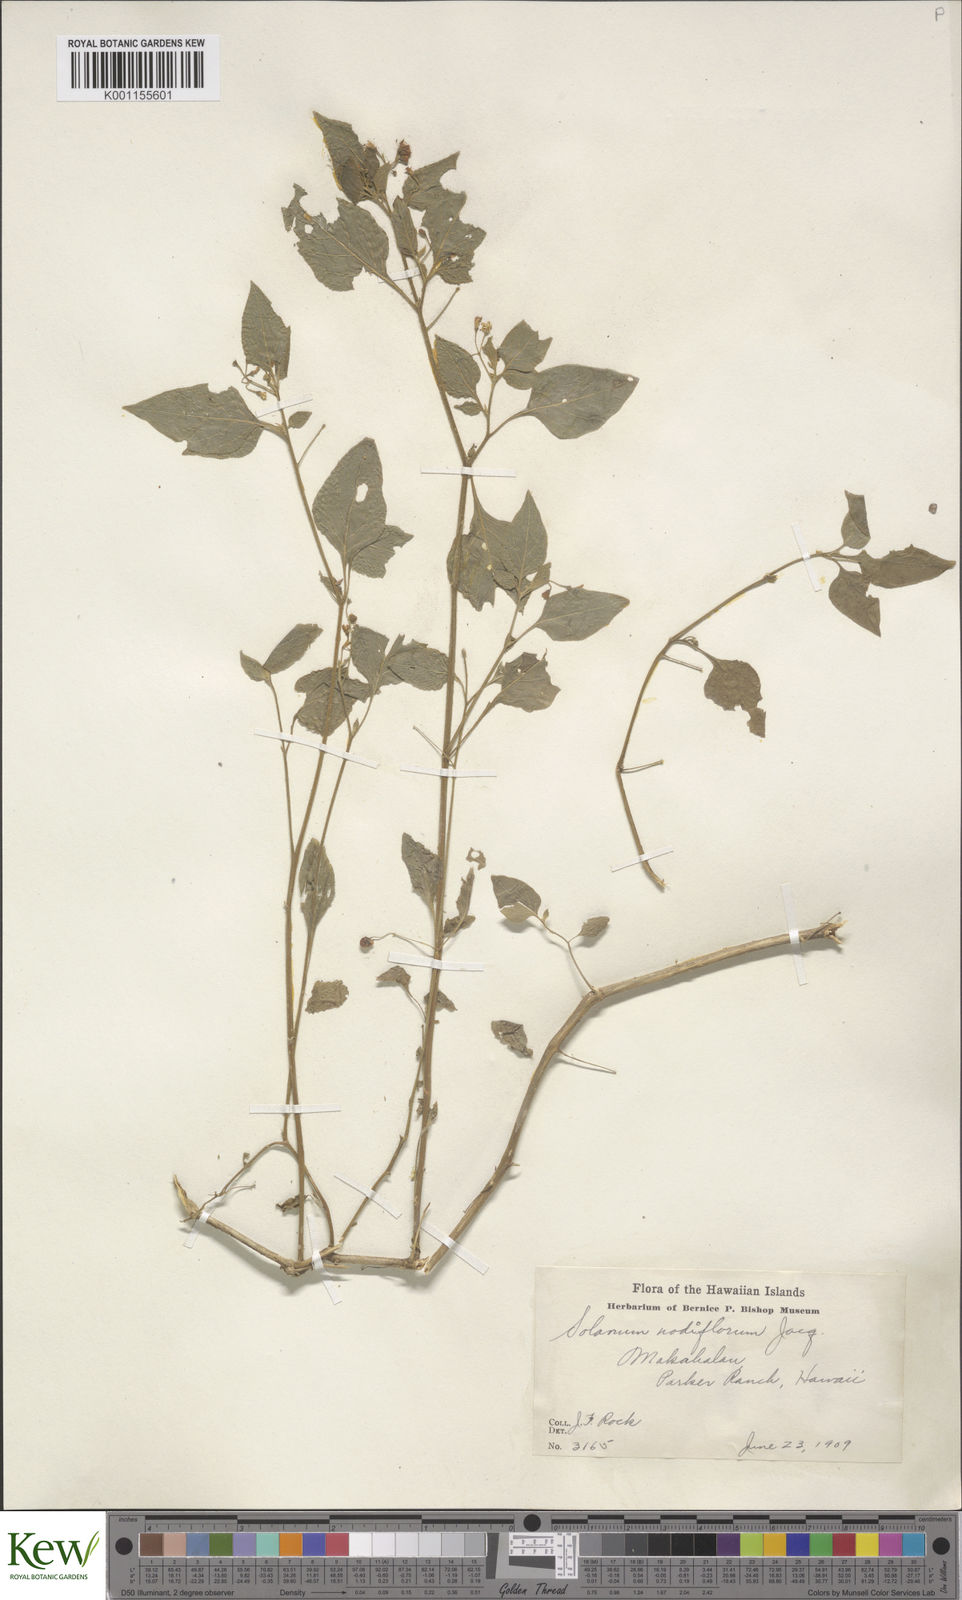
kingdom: Plantae
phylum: Tracheophyta
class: Magnoliopsida
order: Solanales
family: Solanaceae
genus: Solanum
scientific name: Solanum americanum
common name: American black nightshade
